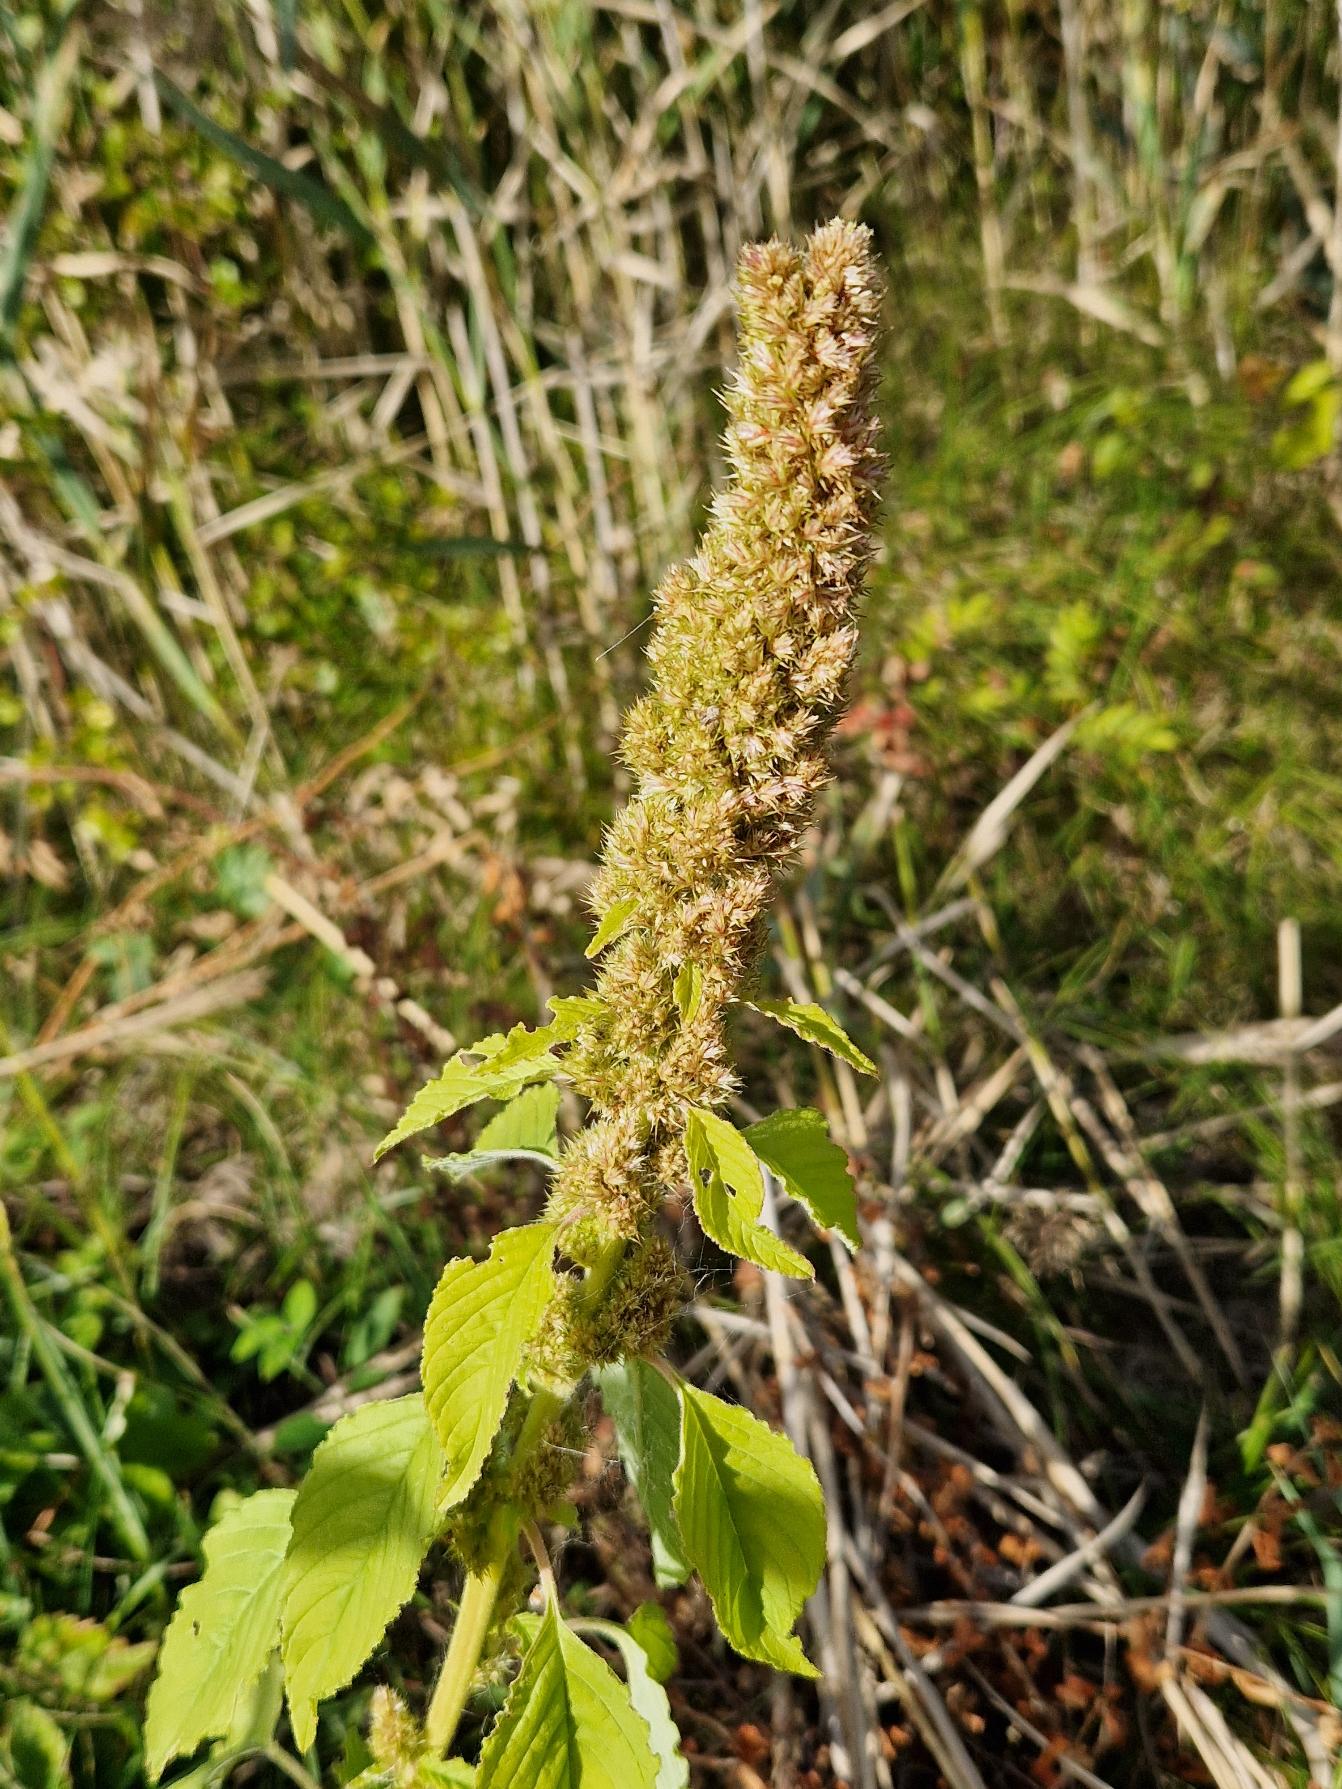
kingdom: Plantae
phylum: Tracheophyta
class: Magnoliopsida
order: Caryophyllales
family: Amaranthaceae
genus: Amaranthus
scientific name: Amaranthus
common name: Amarantslægten
